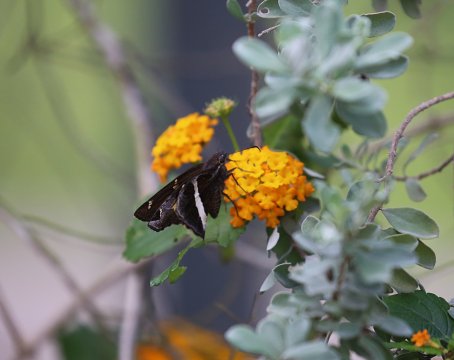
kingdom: Animalia
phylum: Arthropoda
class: Insecta
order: Lepidoptera
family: Hesperiidae
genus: Chioides
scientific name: Chioides catillus
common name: White-striped Longtail
